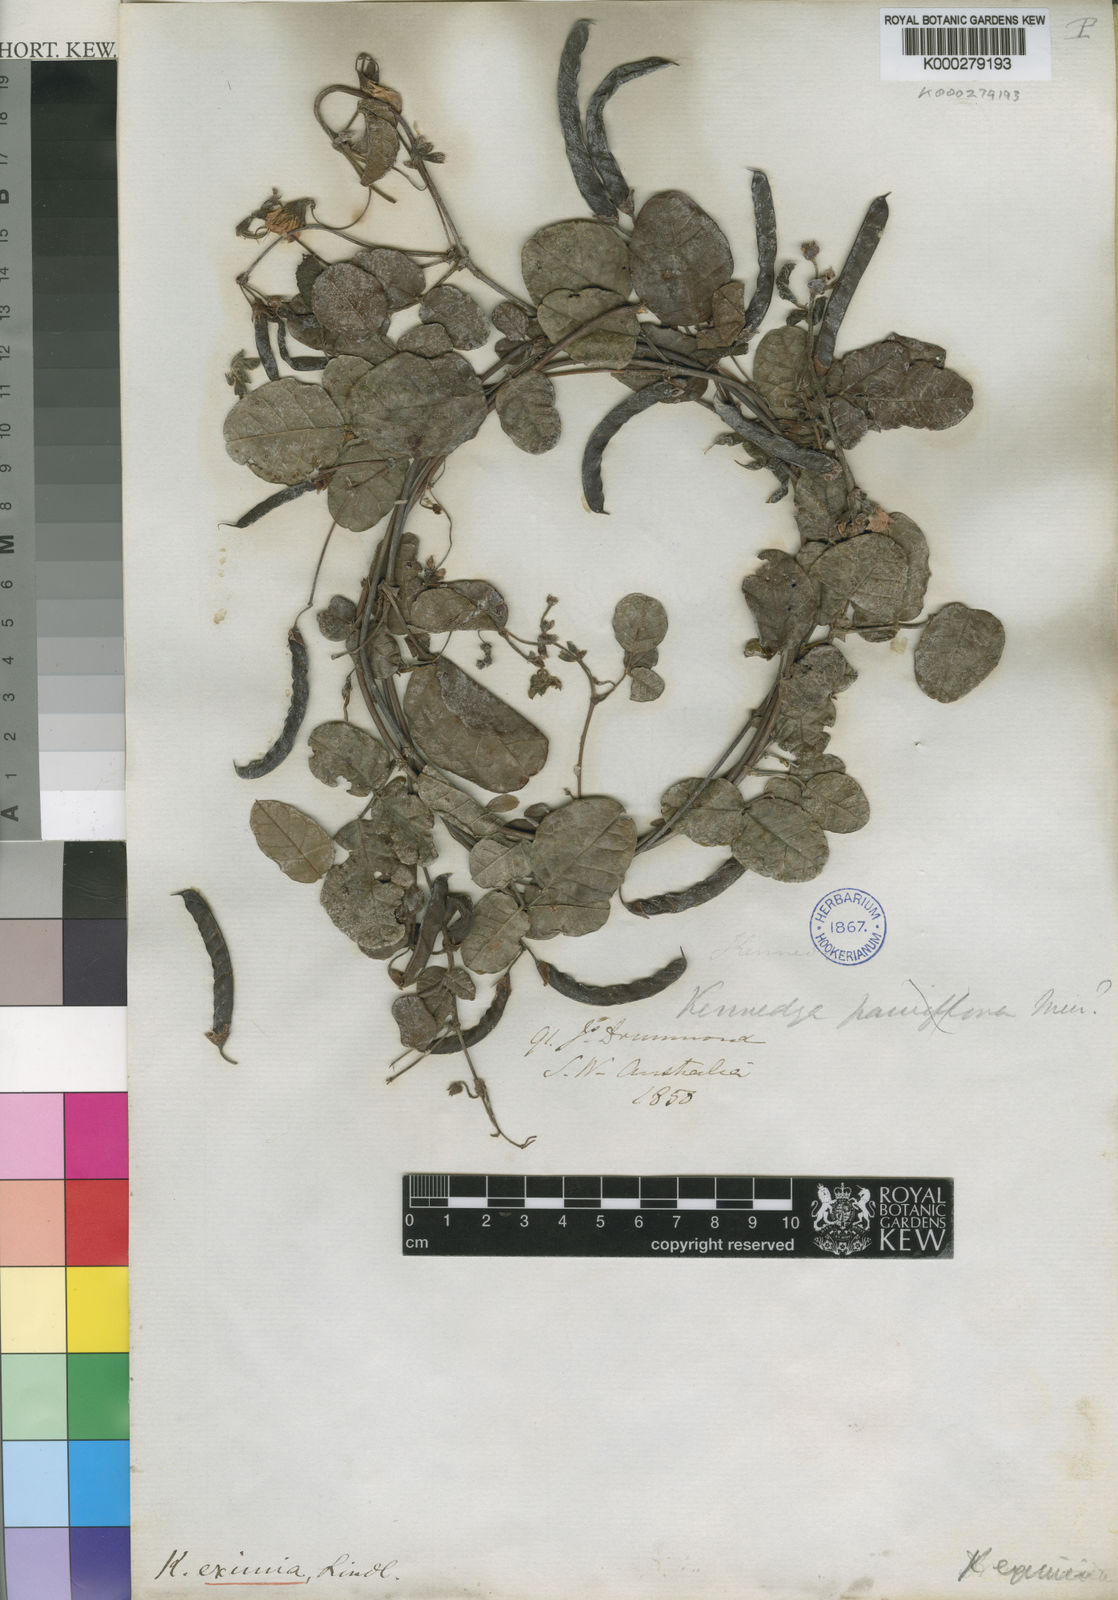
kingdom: Plantae
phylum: Tracheophyta
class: Magnoliopsida
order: Fabales
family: Fabaceae
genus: Kennedia
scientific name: Kennedia
